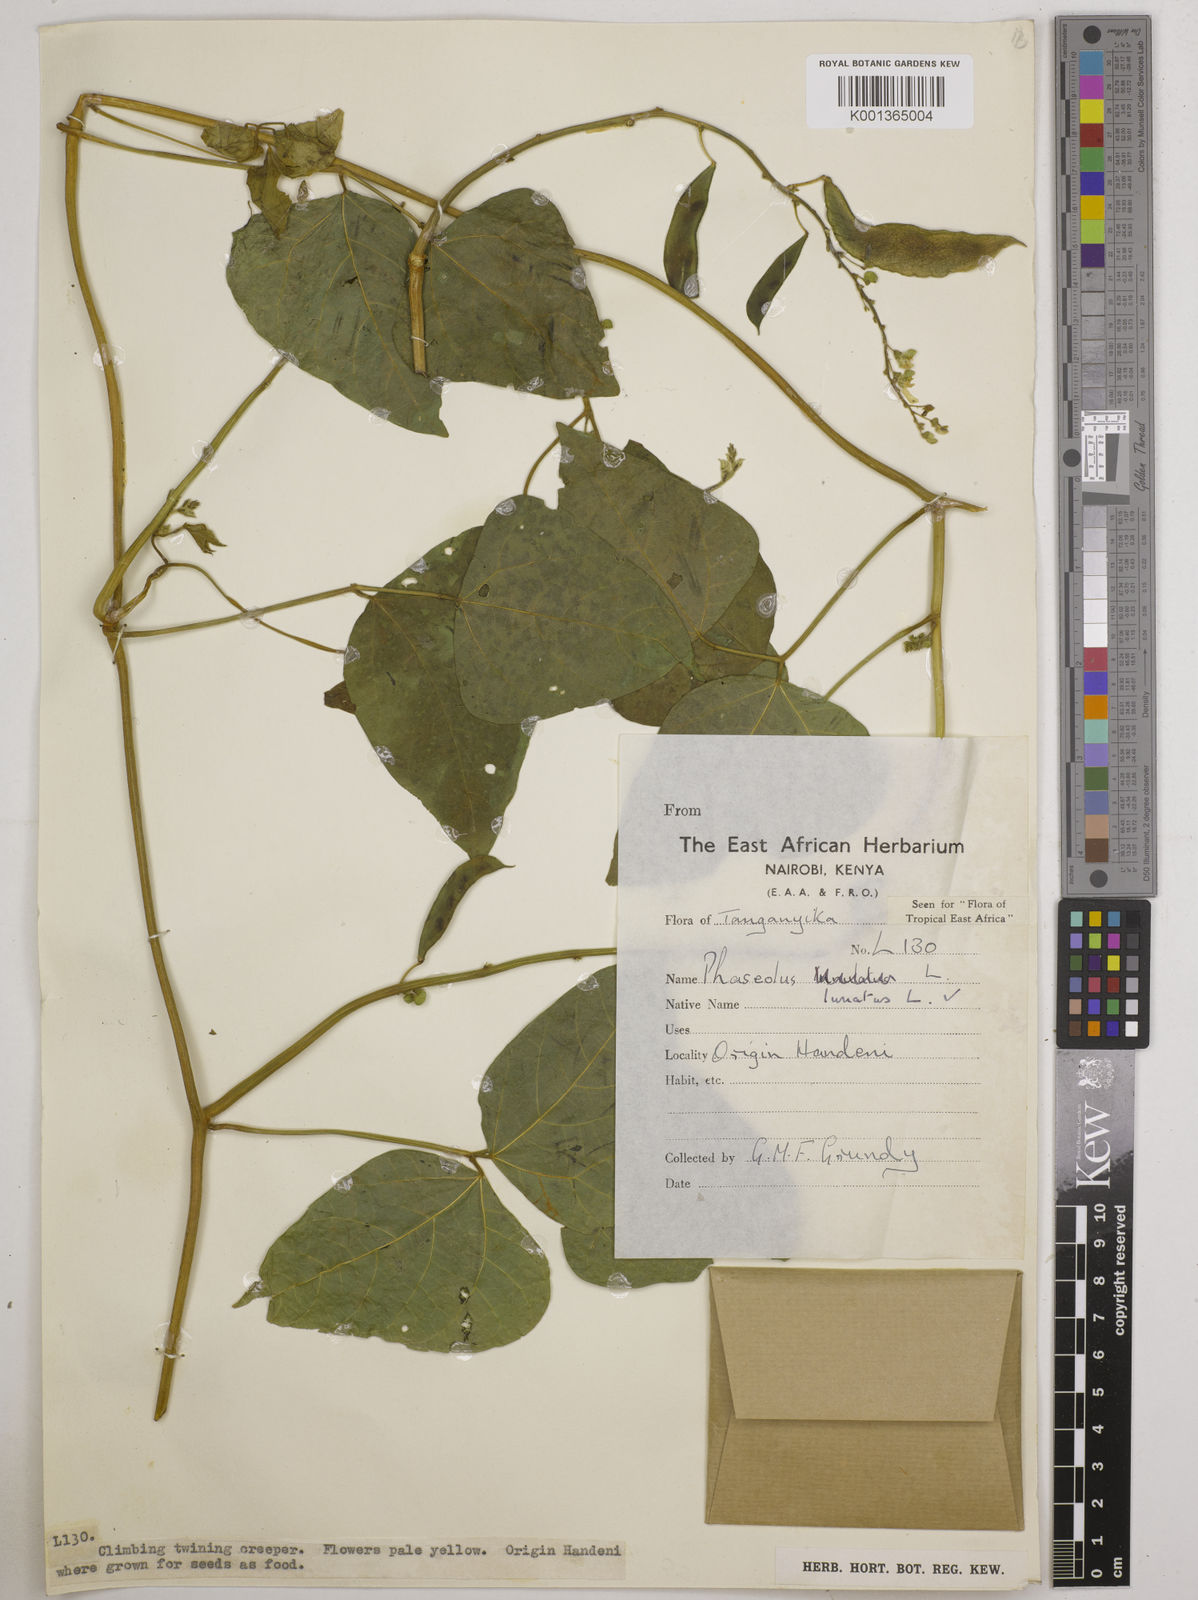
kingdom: Plantae
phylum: Tracheophyta
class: Magnoliopsida
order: Fabales
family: Fabaceae
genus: Phaseolus
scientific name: Phaseolus lunatus
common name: Sieva bean
